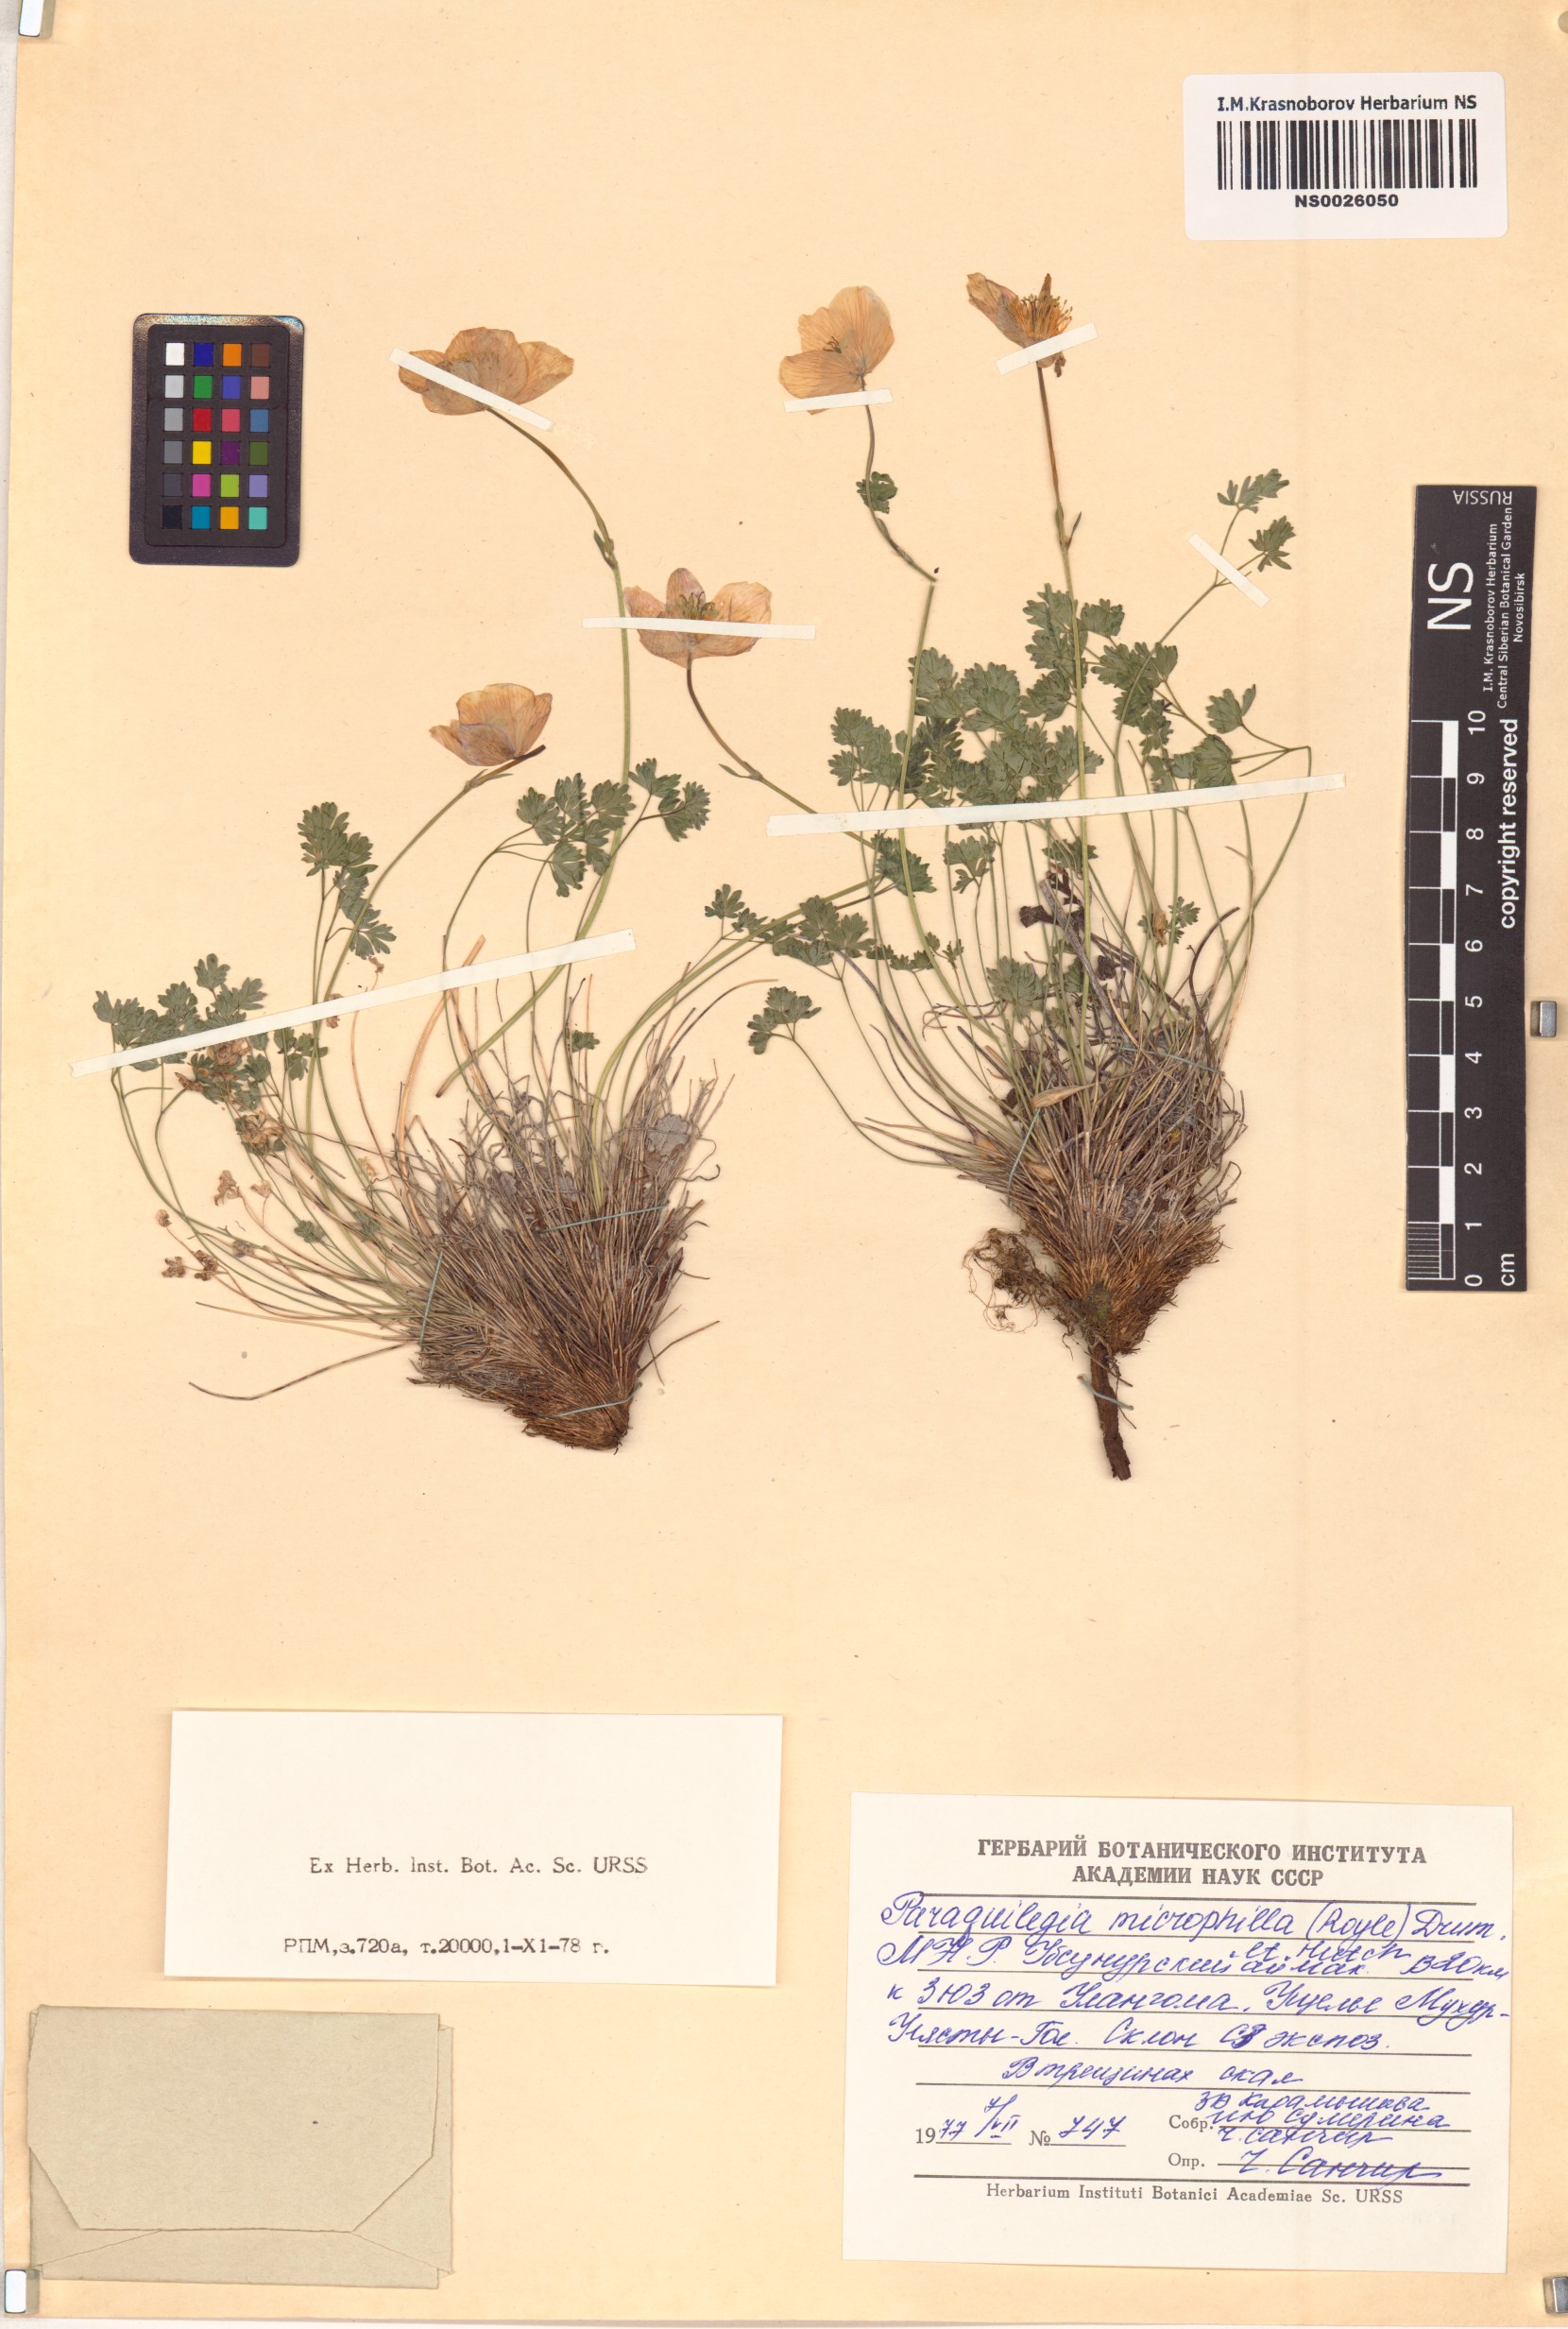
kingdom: Plantae
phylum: Tracheophyta
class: Magnoliopsida
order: Ranunculales
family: Ranunculaceae
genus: Paraquilegia
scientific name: Paraquilegia microphylla
